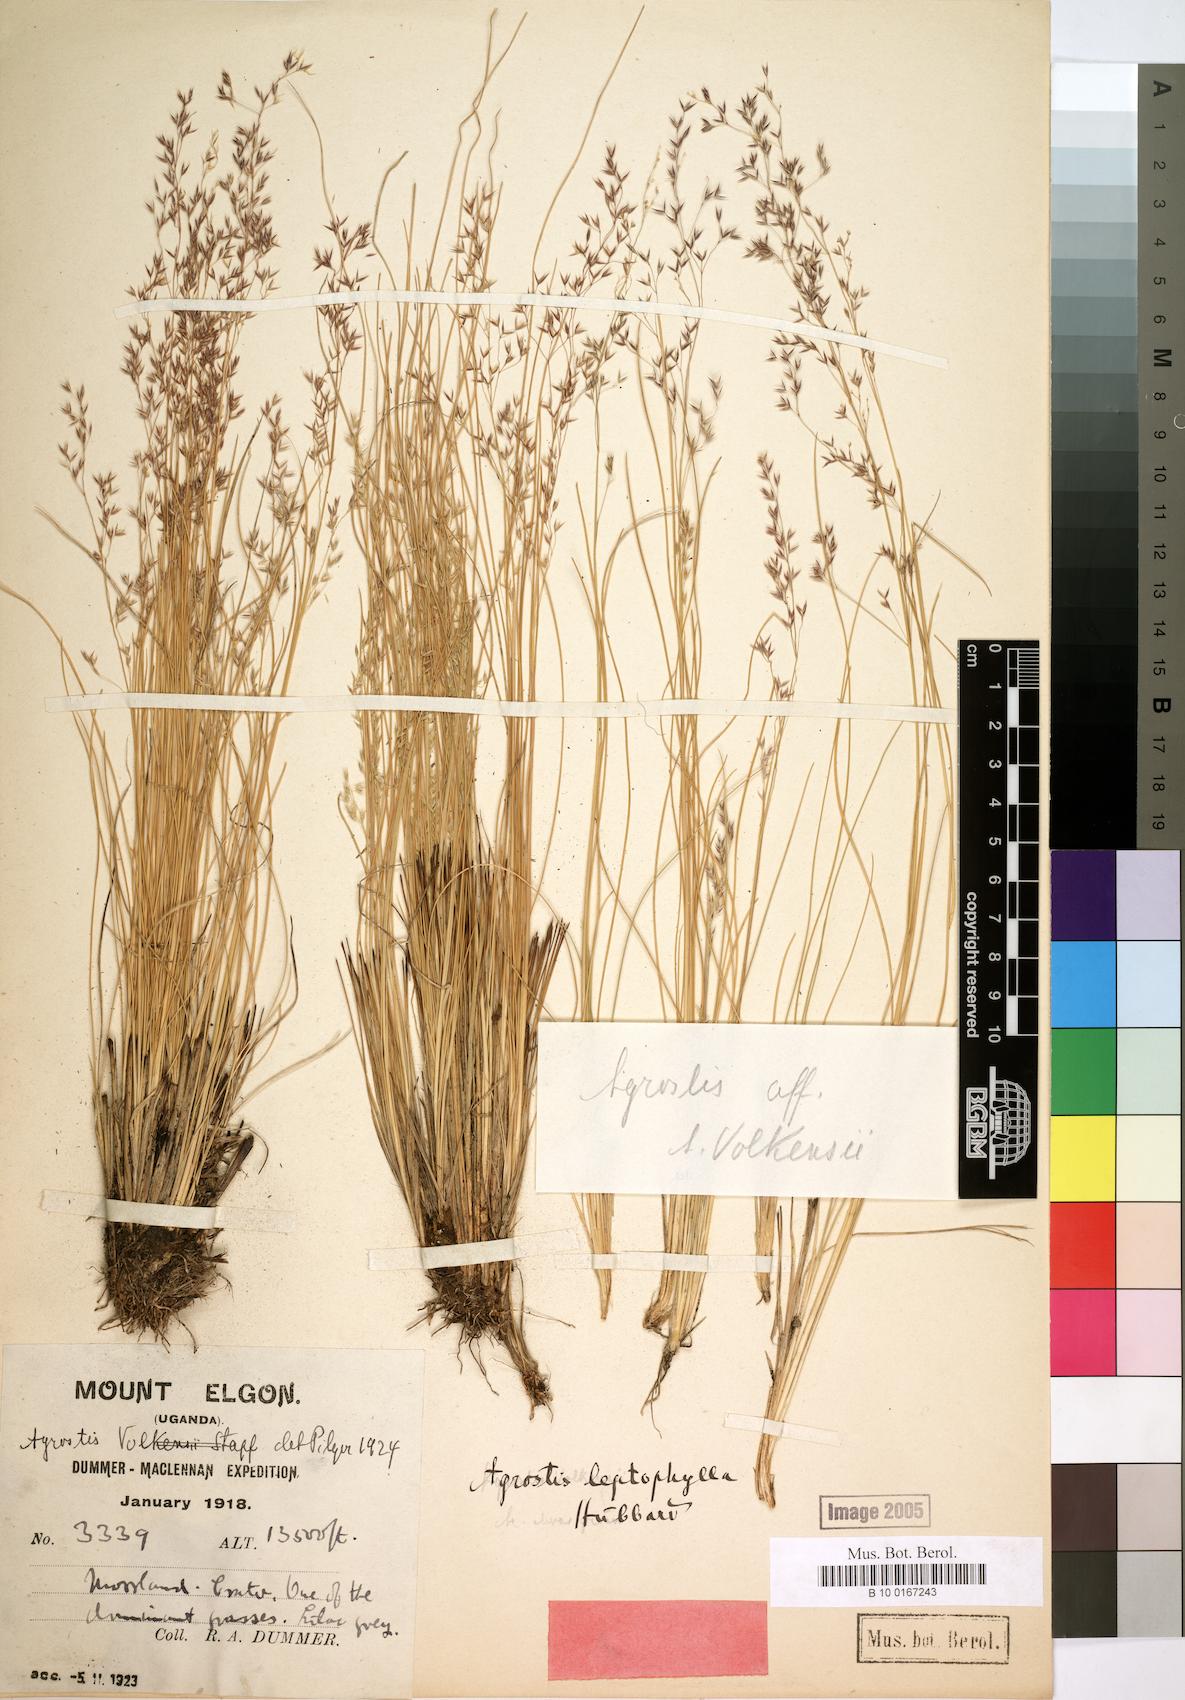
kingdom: Plantae
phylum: Tracheophyta
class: Liliopsida
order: Poales
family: Poaceae
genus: Agrostis
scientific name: Agrostis gracilifolia
